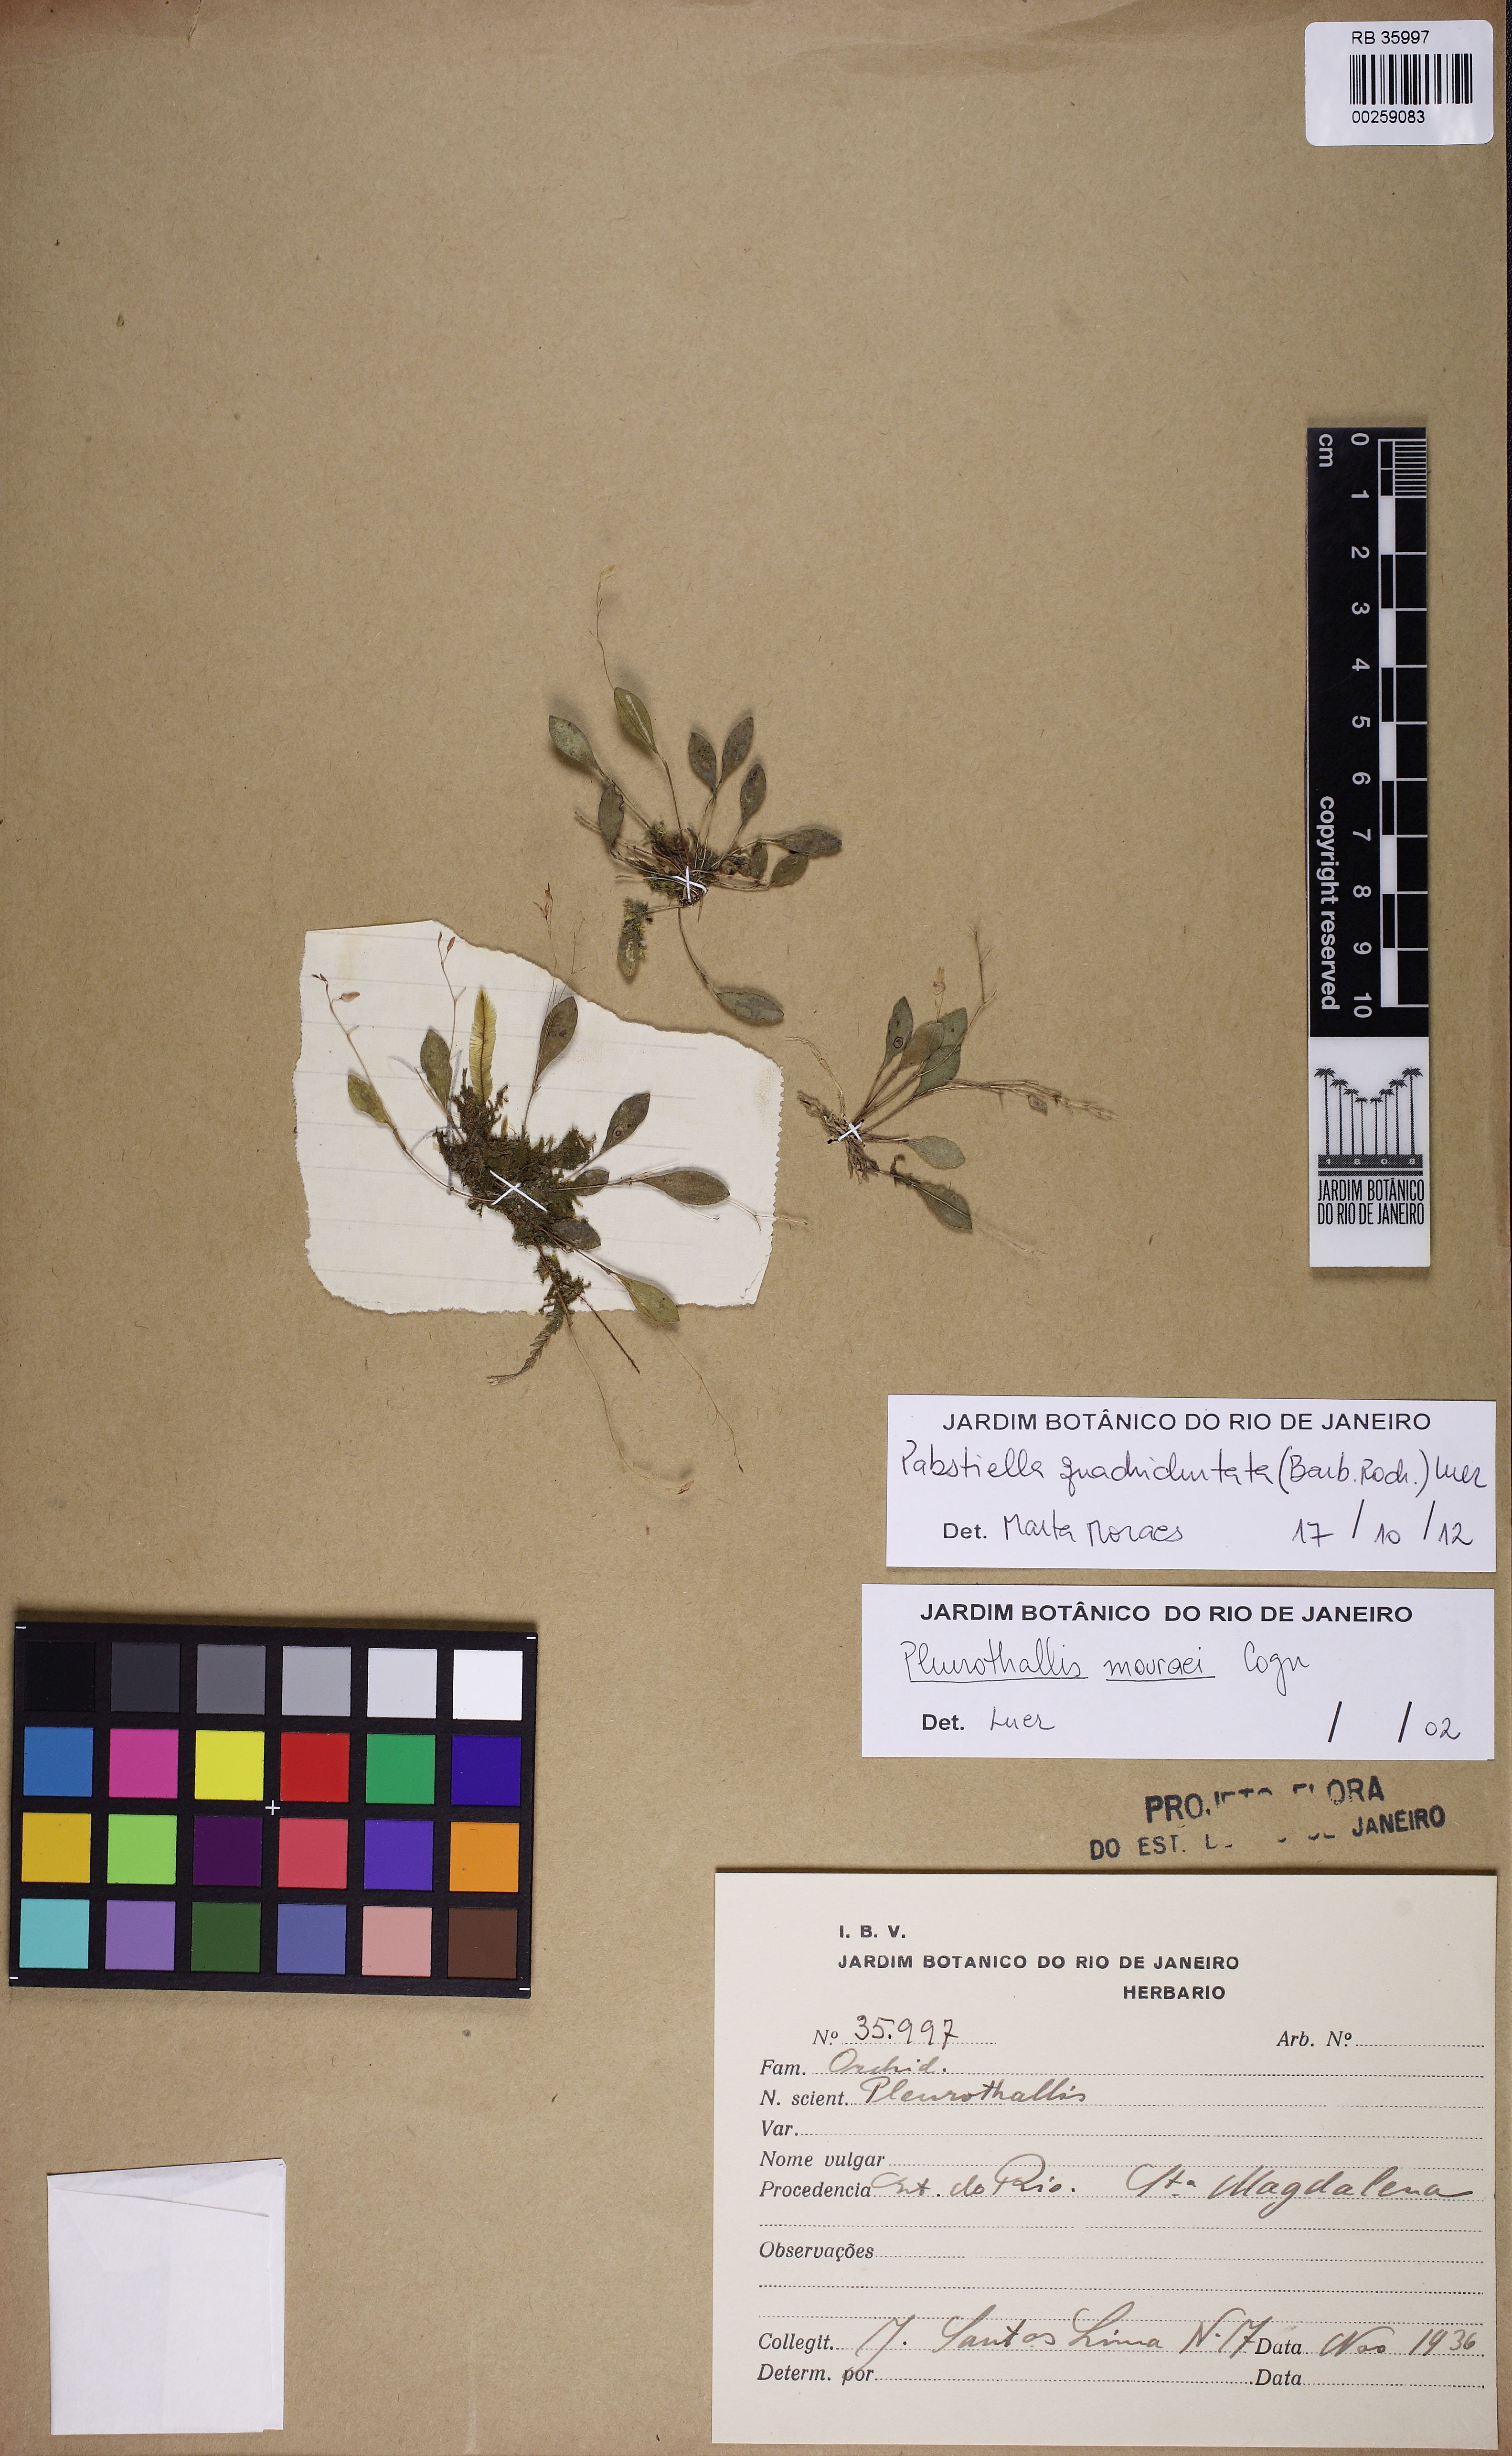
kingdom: Plantae
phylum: Tracheophyta
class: Liliopsida
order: Asparagales
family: Orchidaceae
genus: Pabstiella
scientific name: Pabstiella quadridentata
